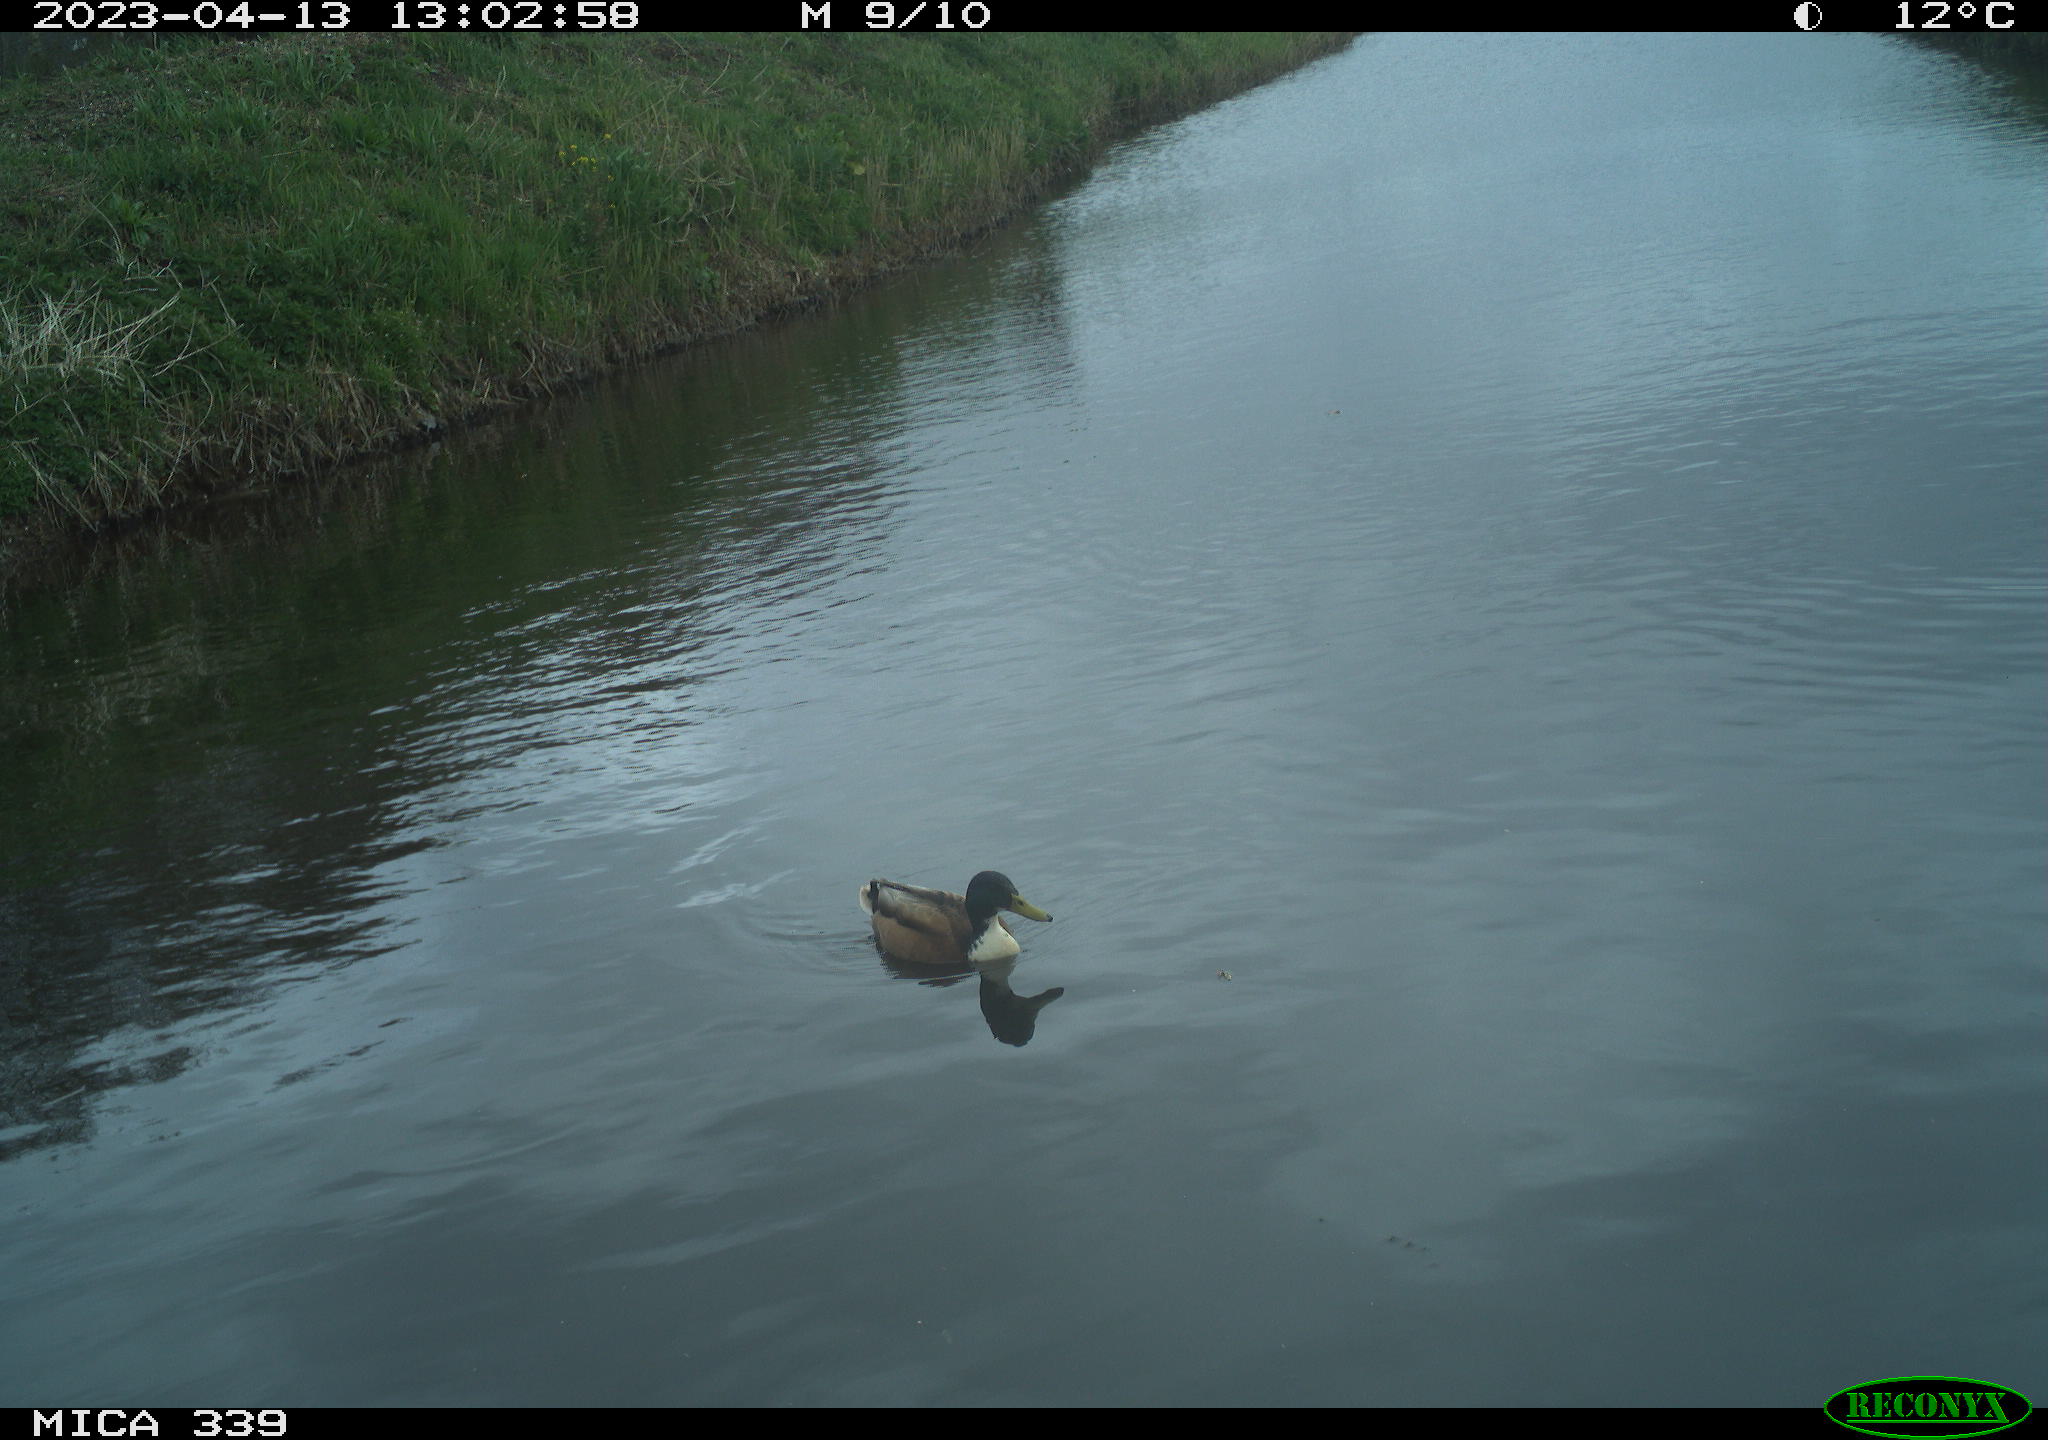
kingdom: Animalia
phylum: Chordata
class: Aves
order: Anseriformes
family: Anatidae
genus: Anas
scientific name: Anas
